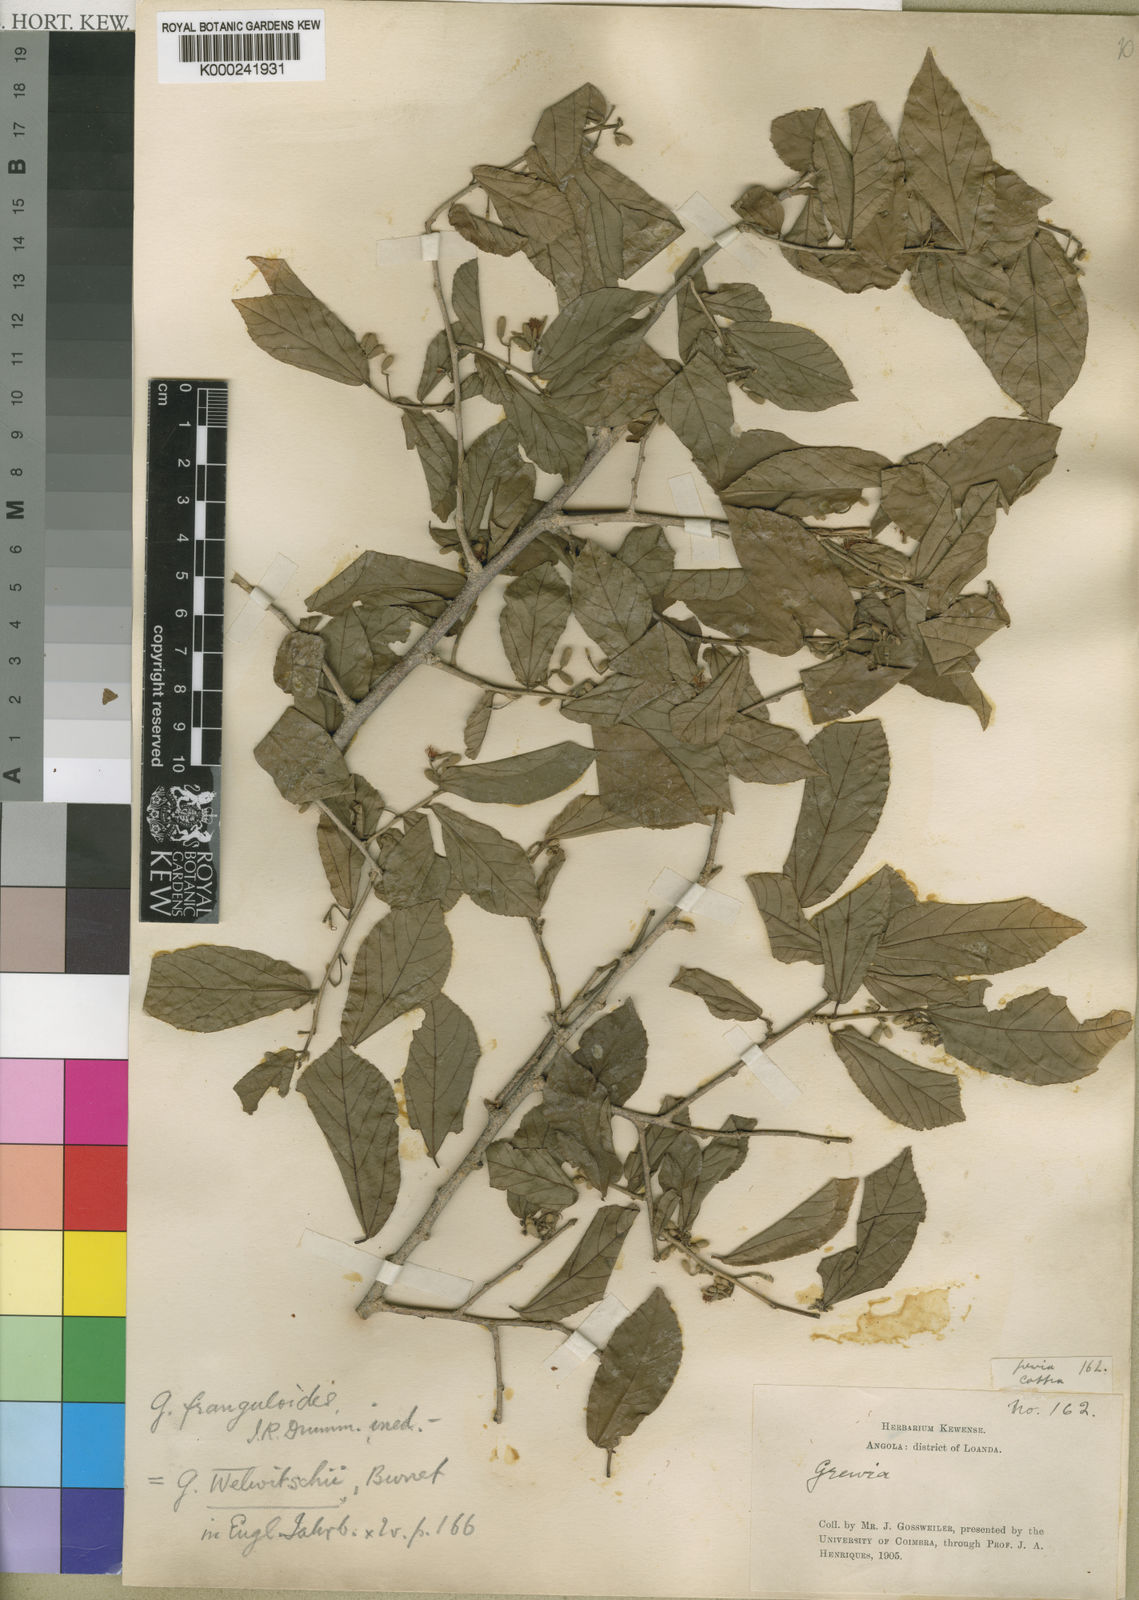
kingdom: Plantae
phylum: Tracheophyta
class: Magnoliopsida
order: Malvales
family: Malvaceae
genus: Grewia
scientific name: Grewia welwitschii
